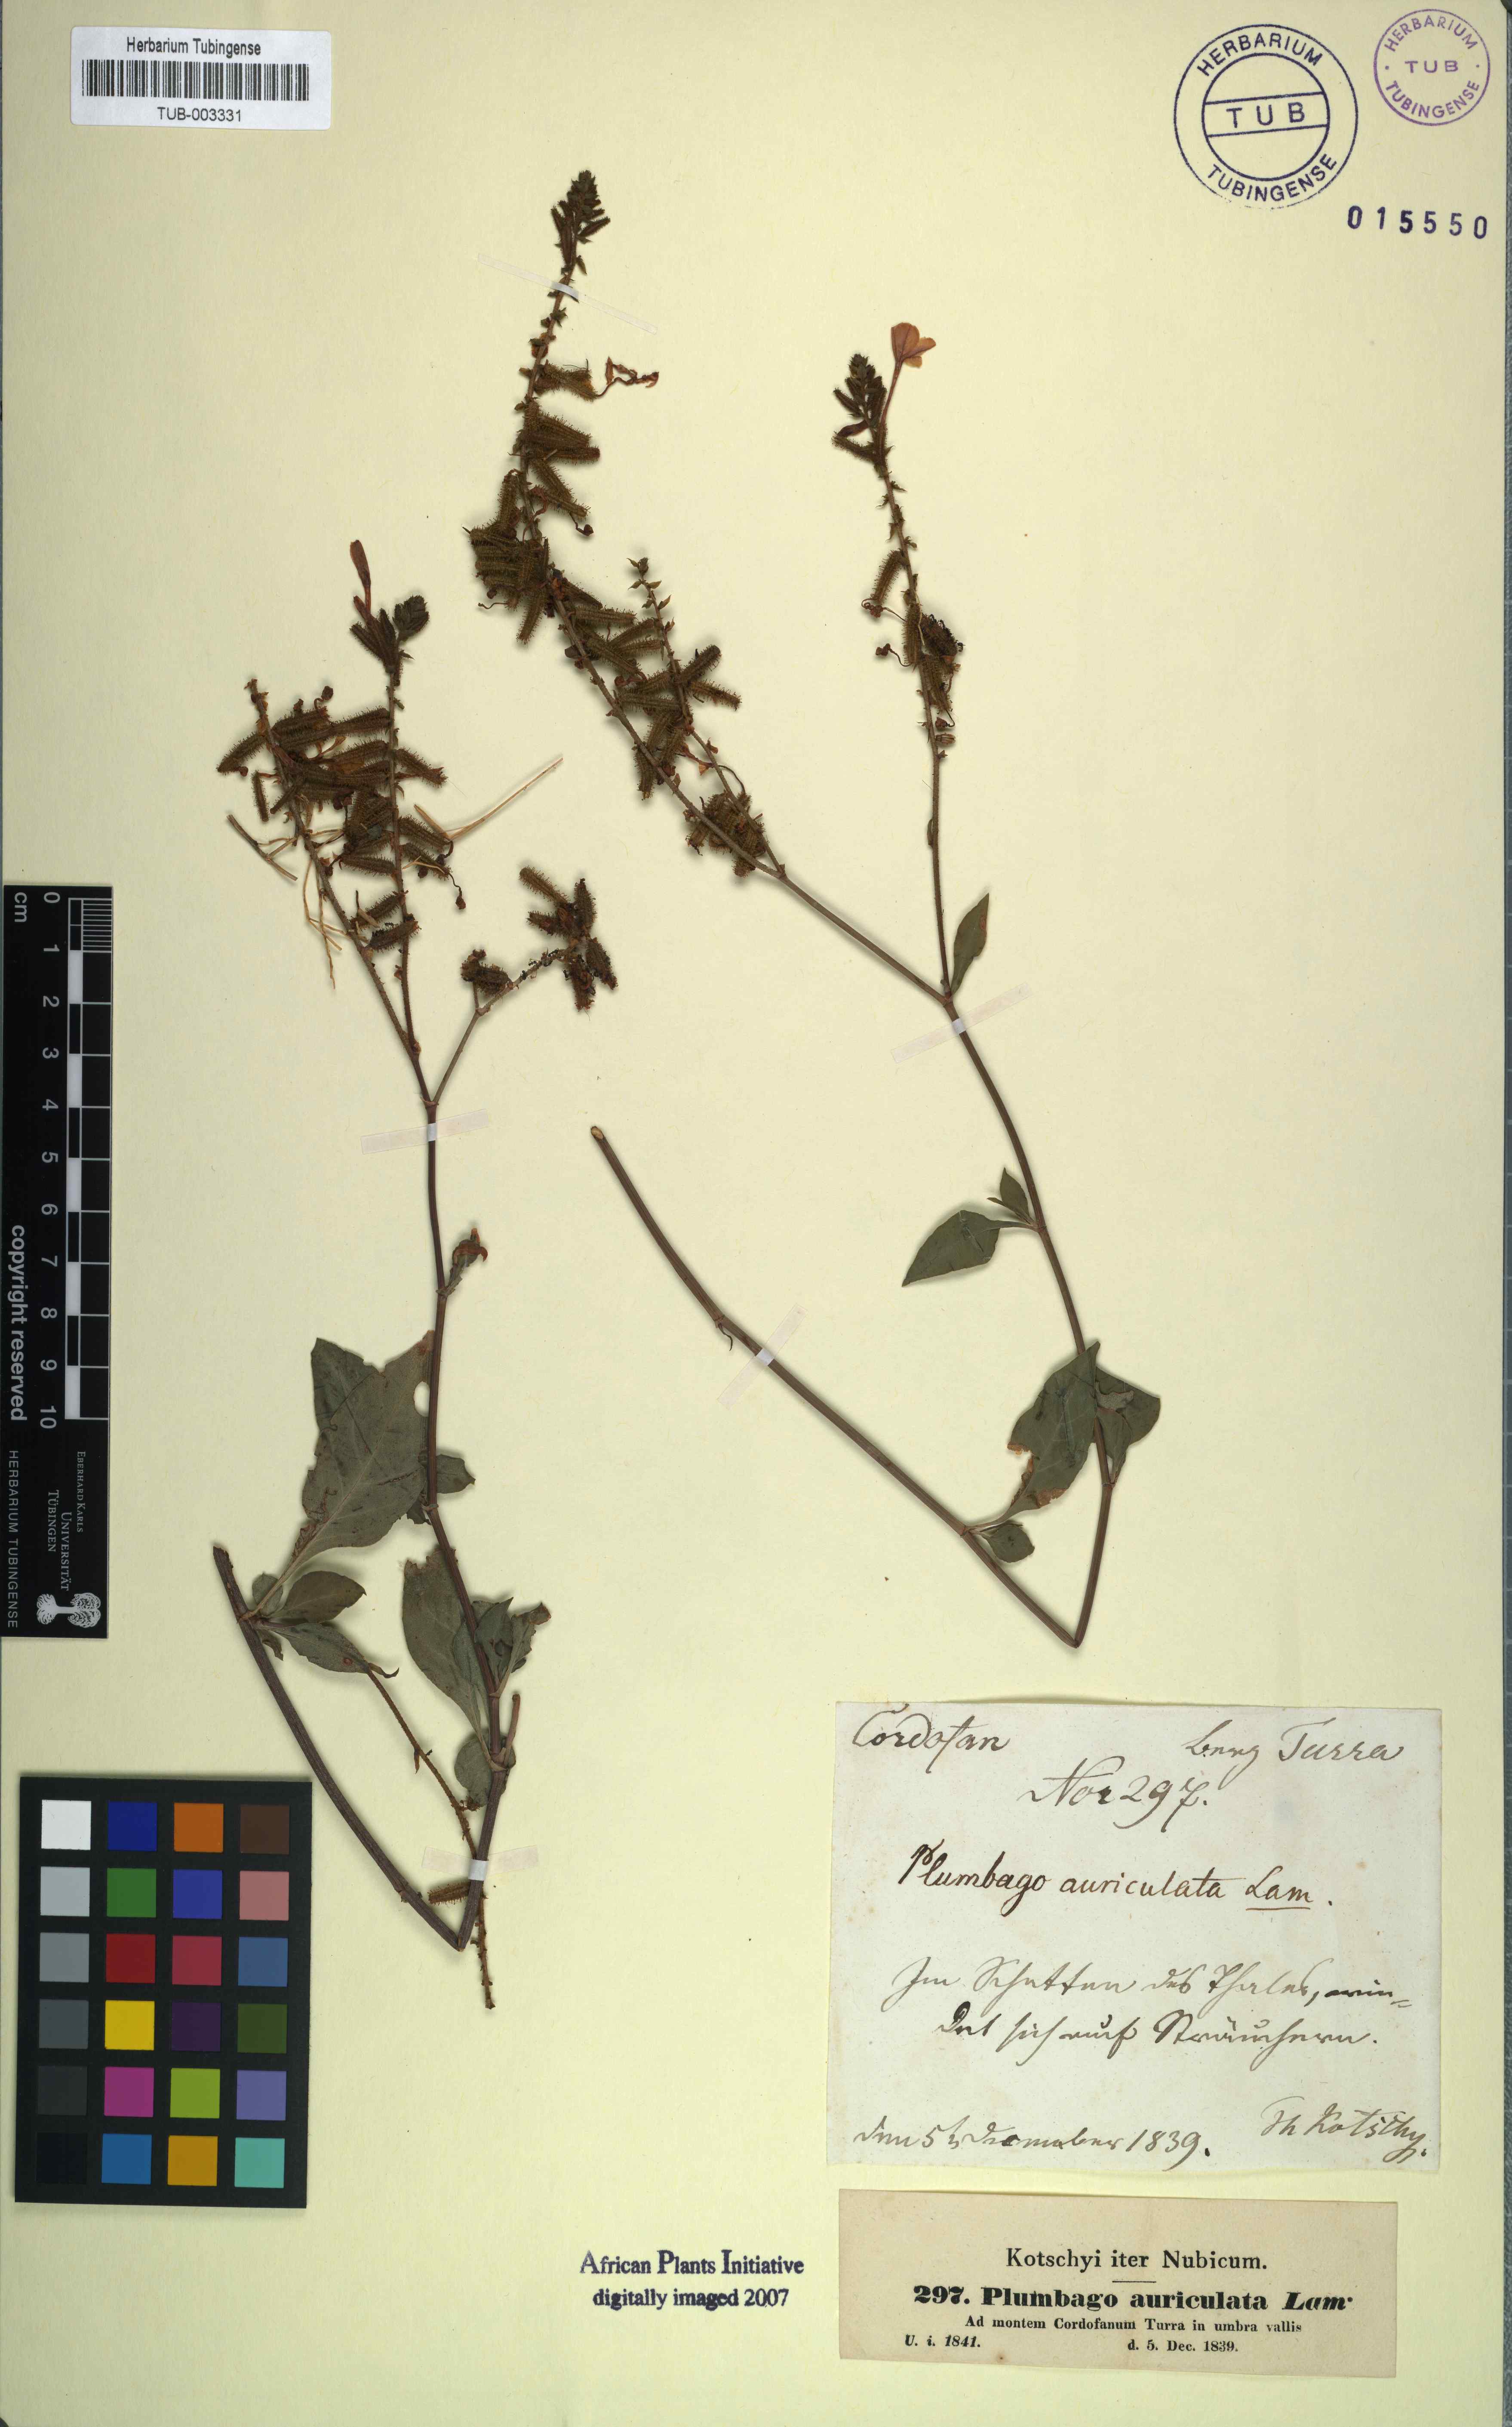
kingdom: Plantae
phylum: Tracheophyta
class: Magnoliopsida
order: Caryophyllales
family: Plumbaginaceae
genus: Plumbago
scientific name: Plumbago auriculata
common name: Cape leadwort
